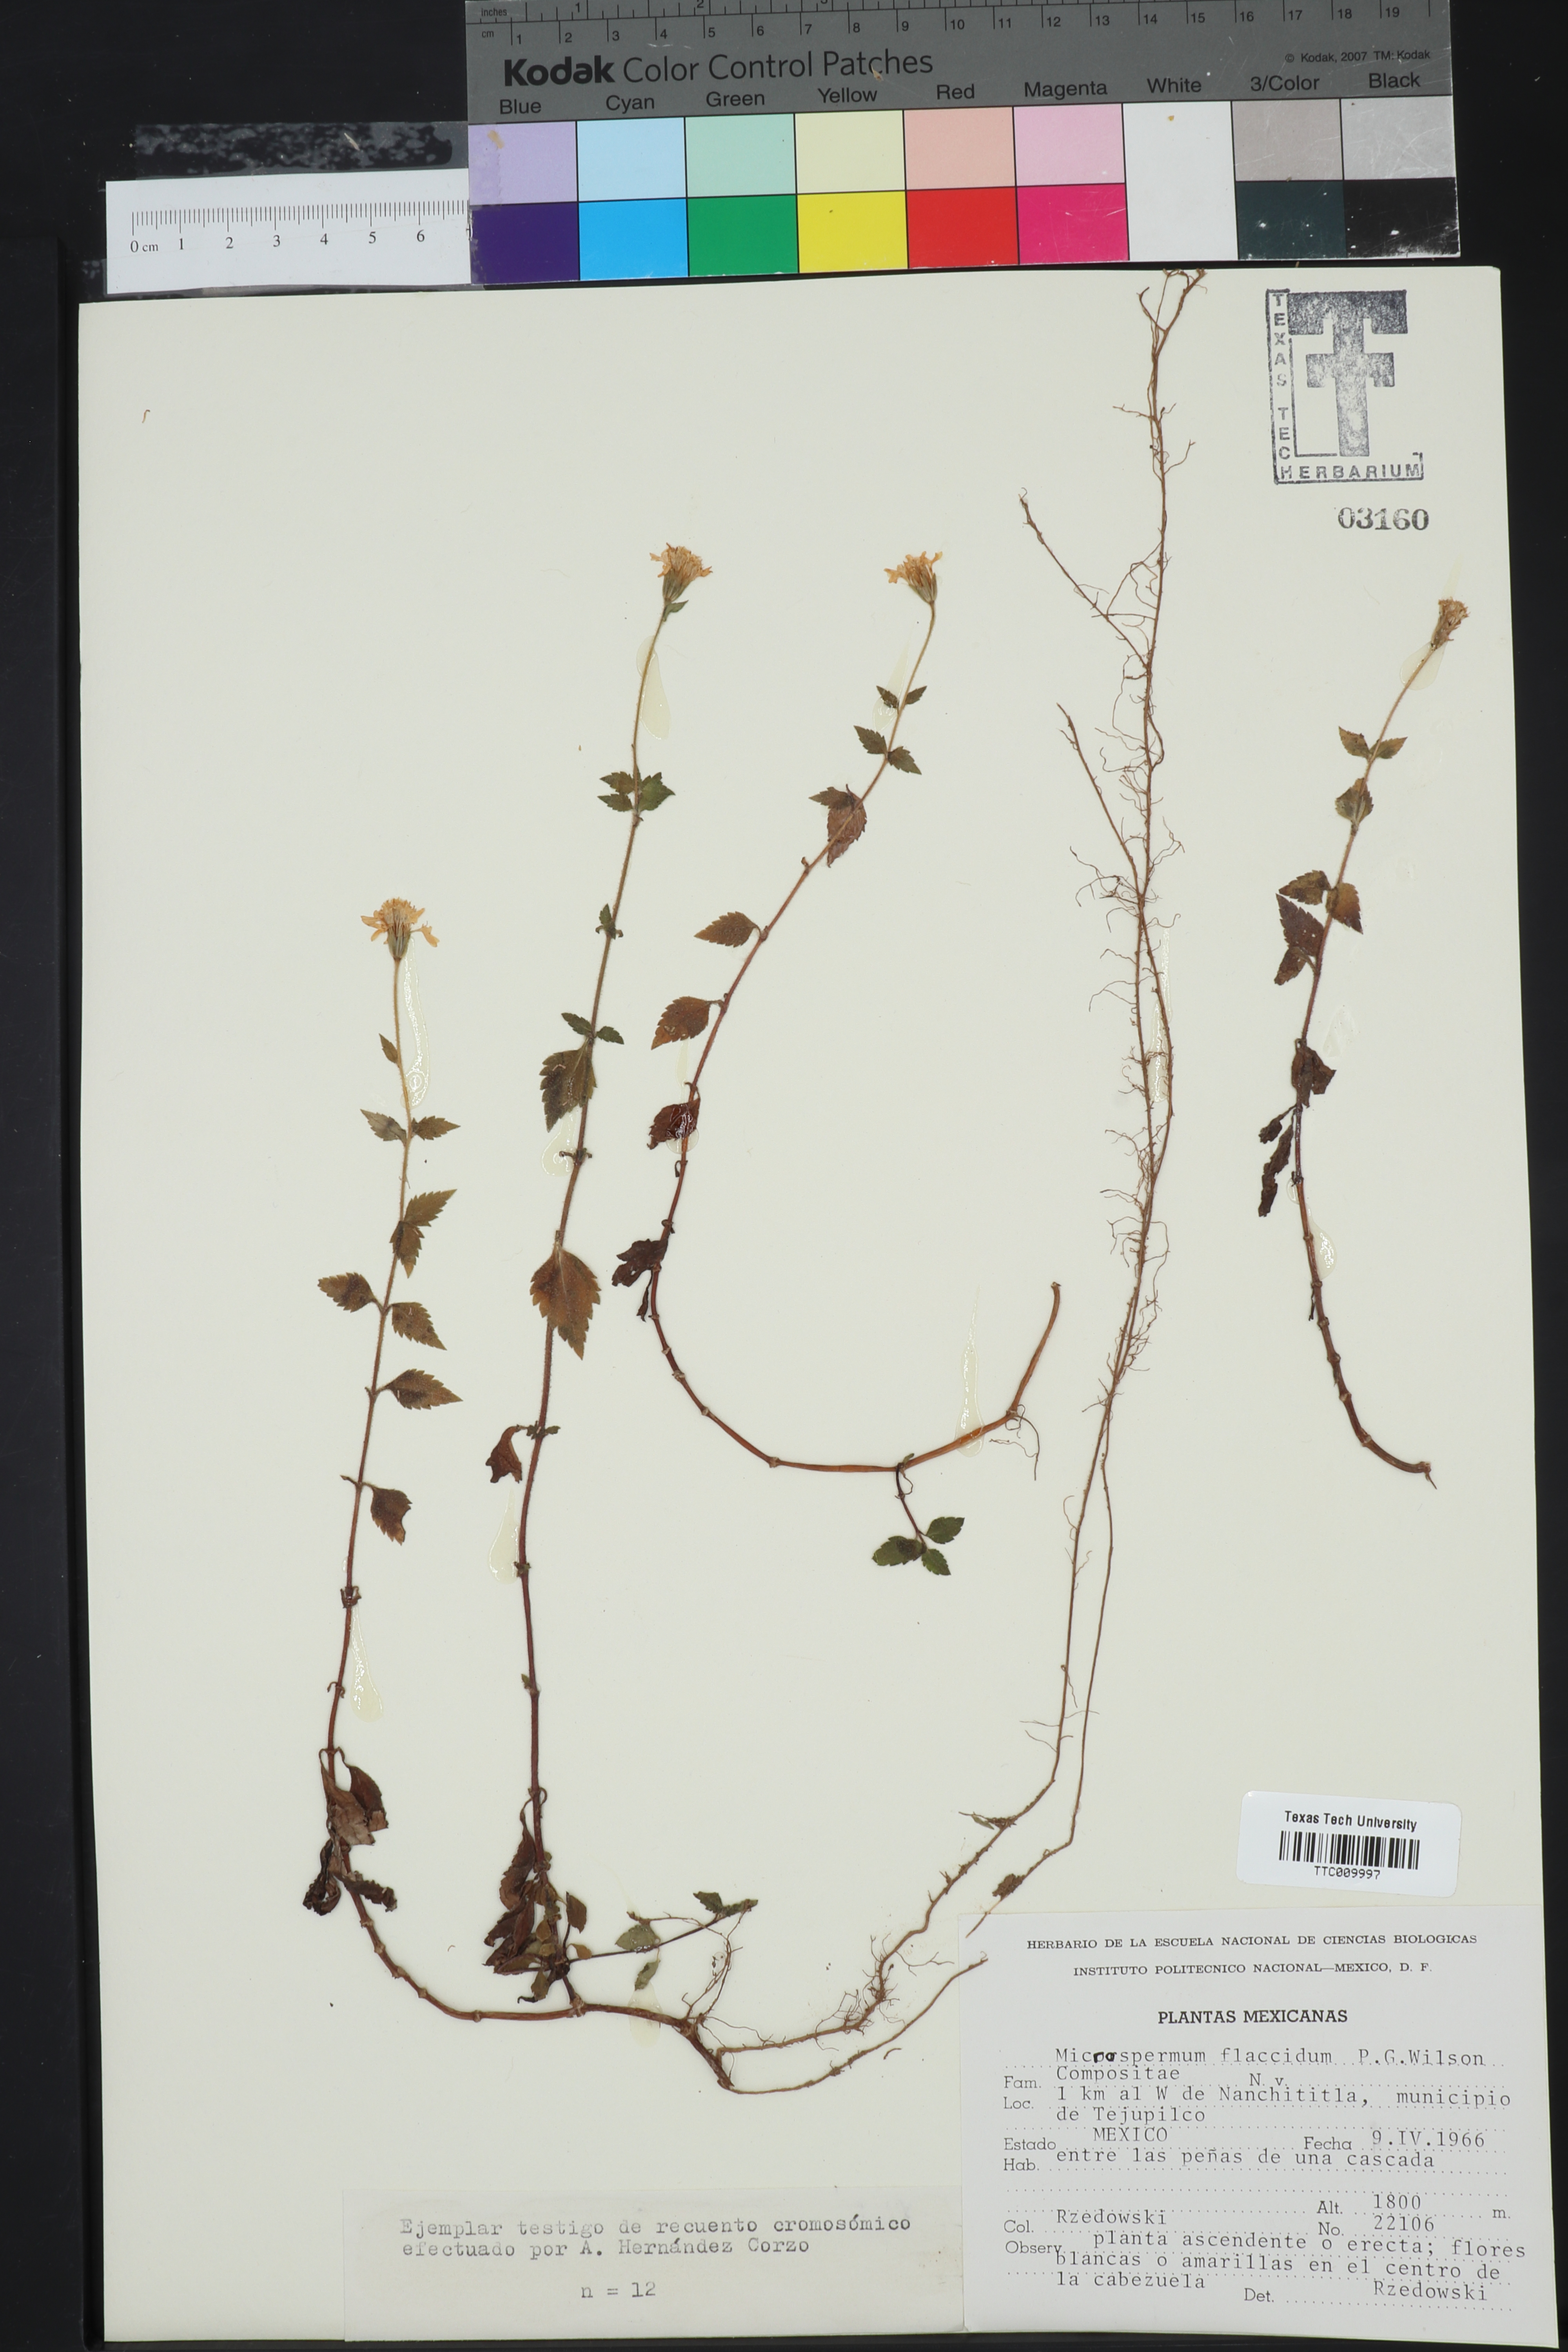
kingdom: Plantae
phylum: Tracheophyta
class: Magnoliopsida
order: Asterales
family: Asteraceae
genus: Microspermum
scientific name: Microspermum flaccidum
